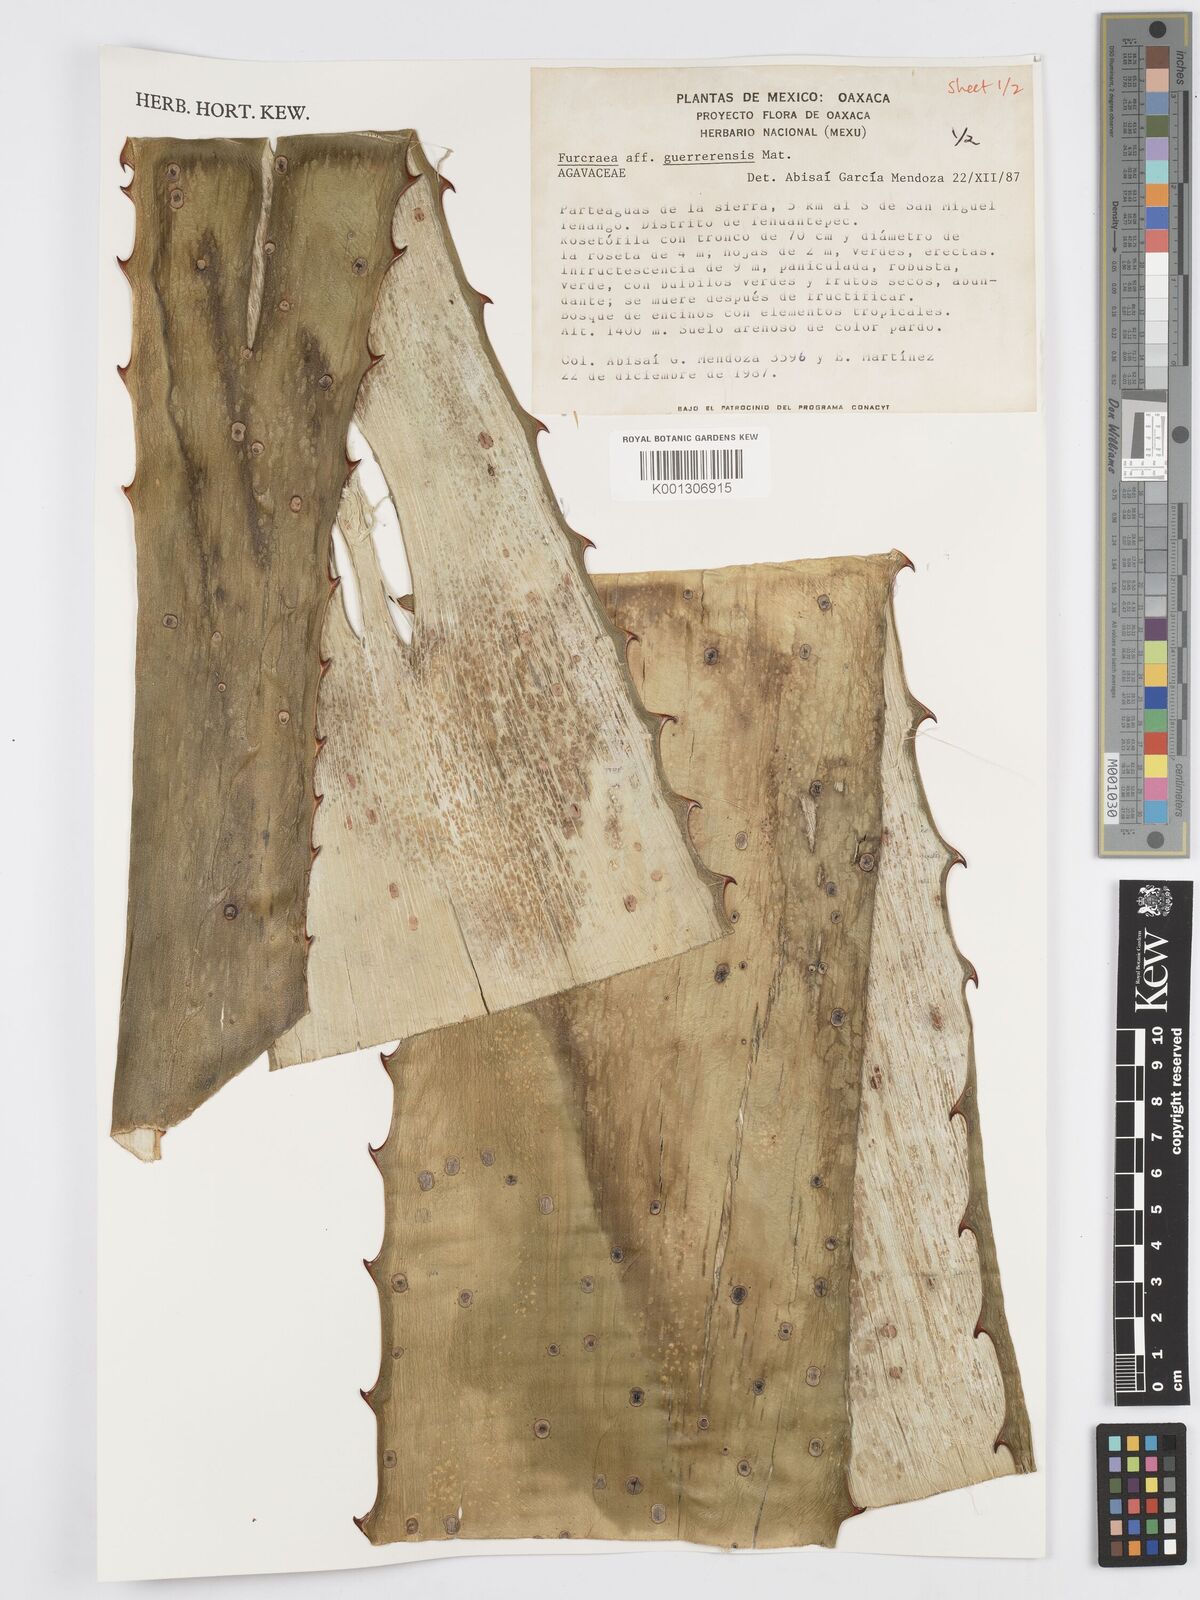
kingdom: Plantae
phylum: Tracheophyta
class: Liliopsida
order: Asparagales
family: Asparagaceae
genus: Furcraea
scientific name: Furcraea guerrerensis
